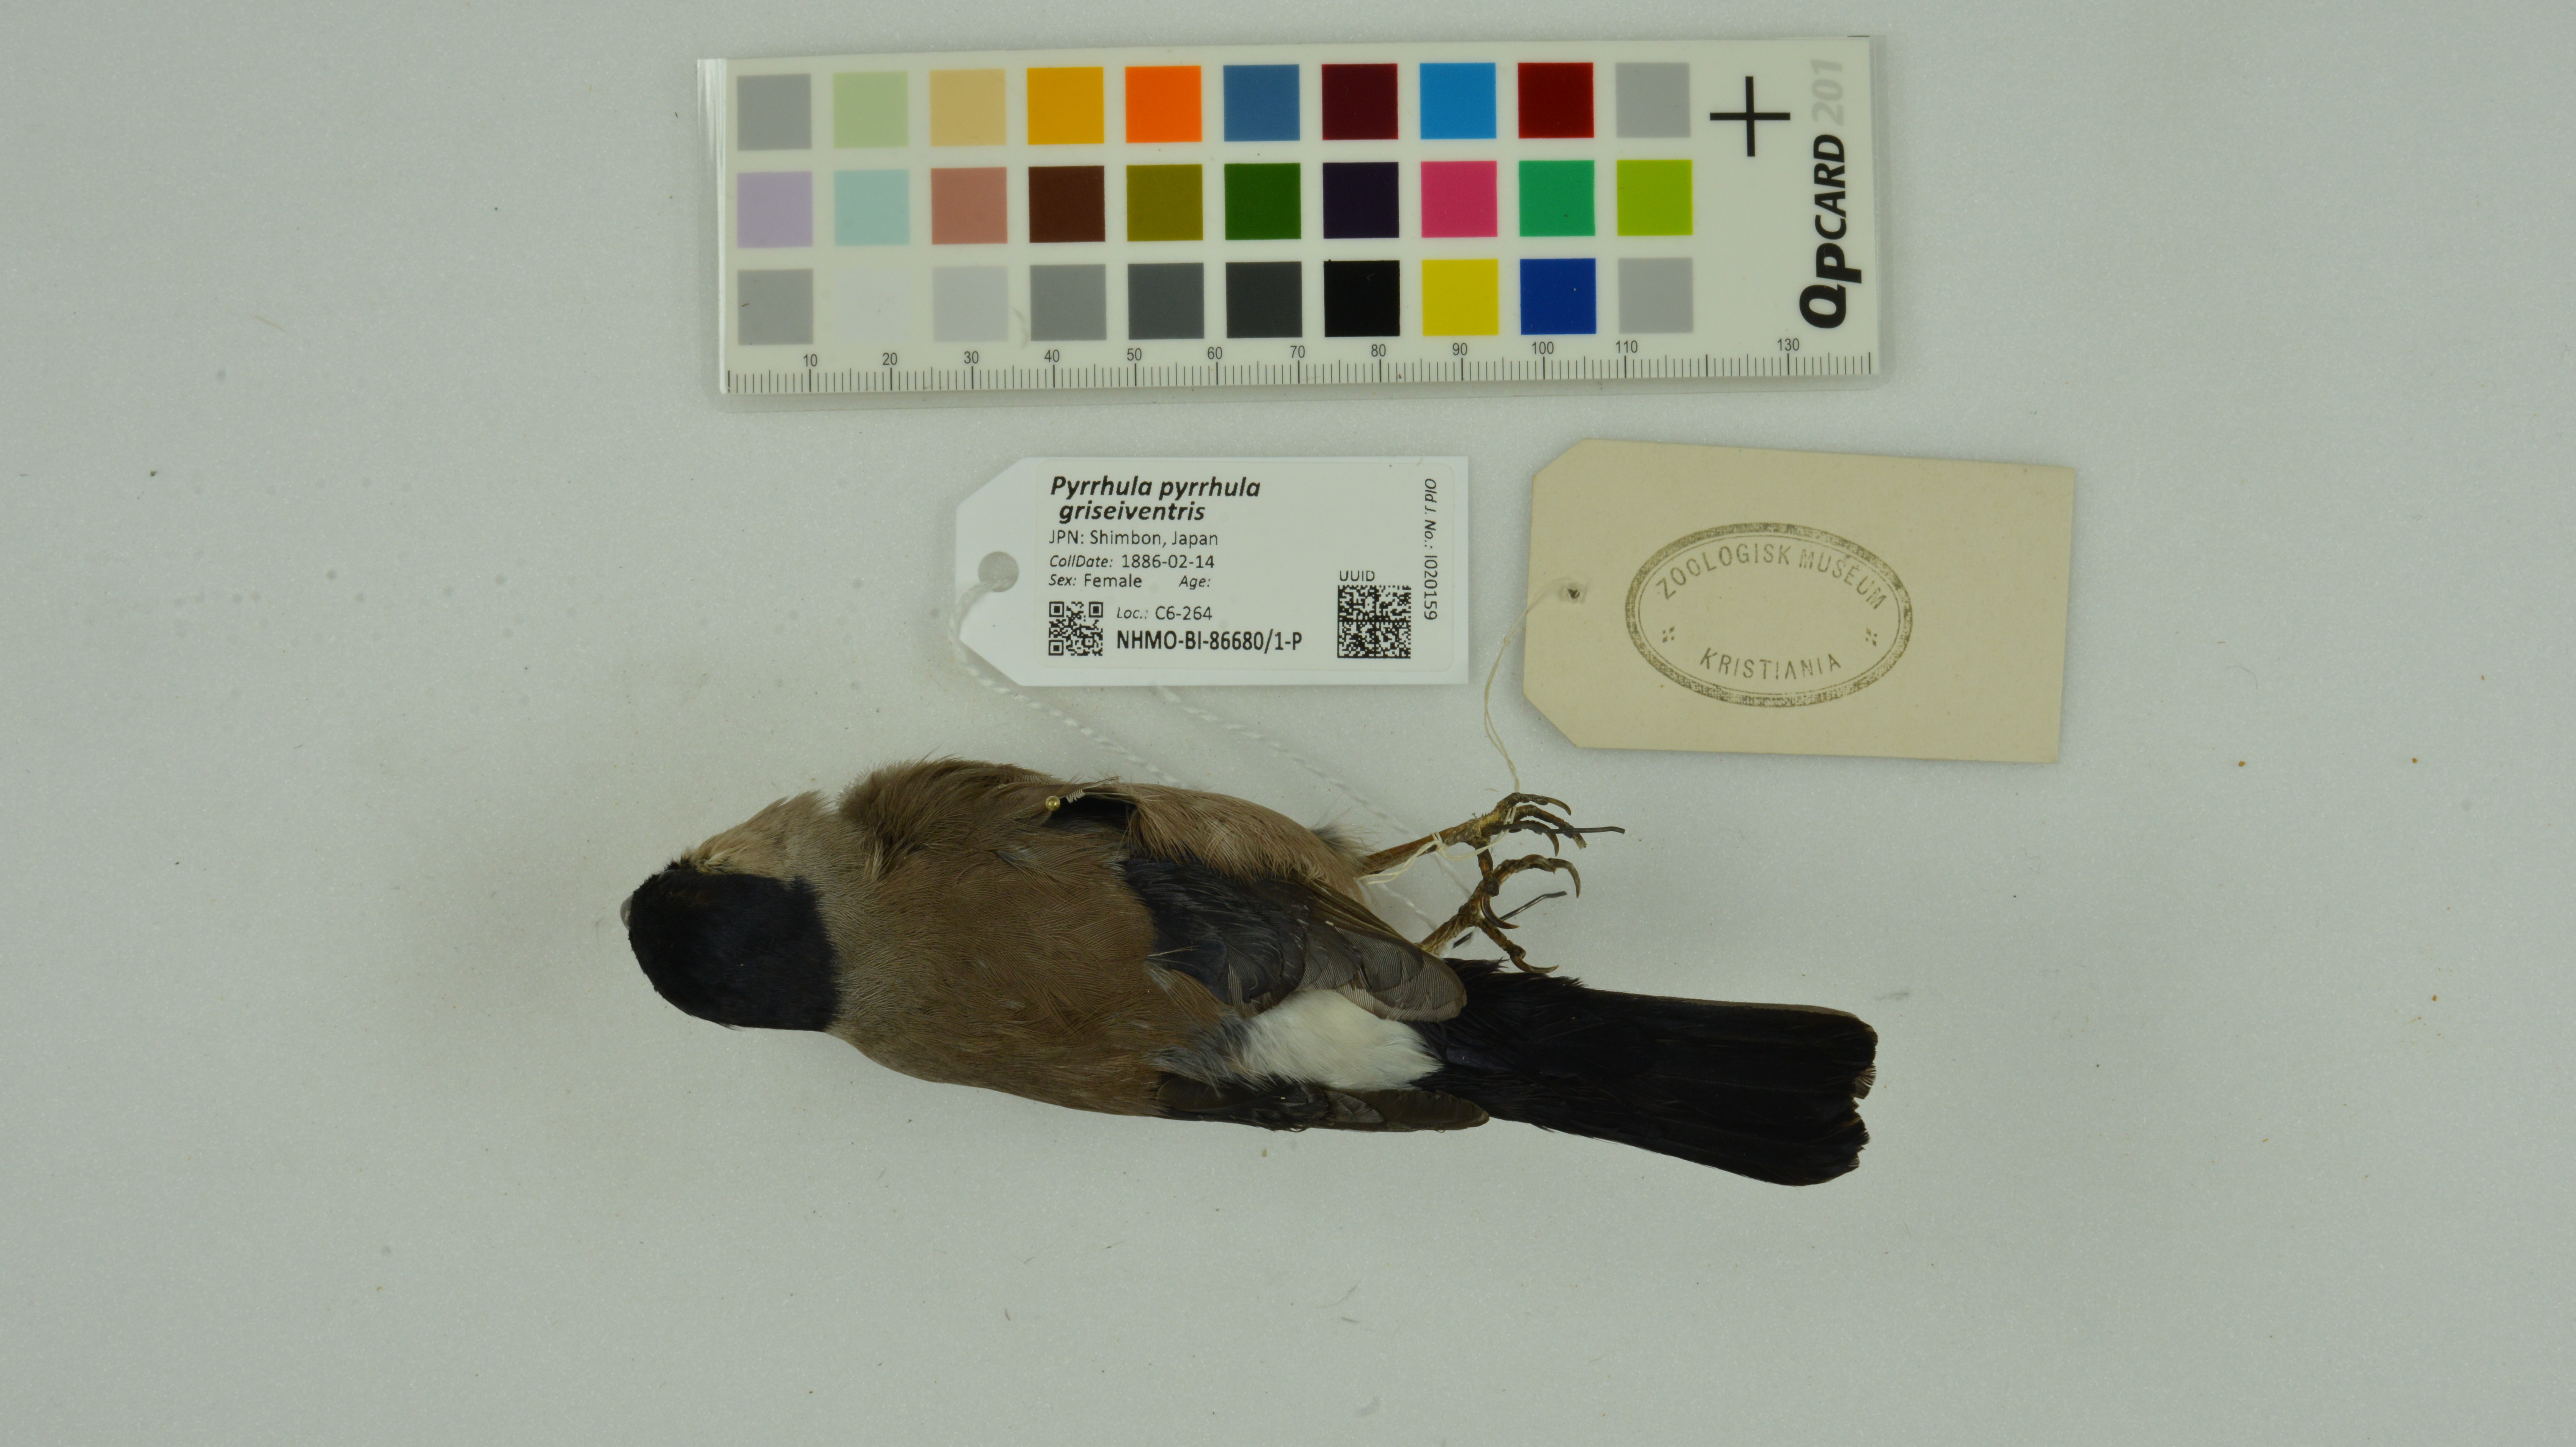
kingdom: Animalia
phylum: Chordata
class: Aves
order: Passeriformes
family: Fringillidae
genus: Pyrrhula
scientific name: Pyrrhula pyrrhula
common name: Eurasian bullfinch
